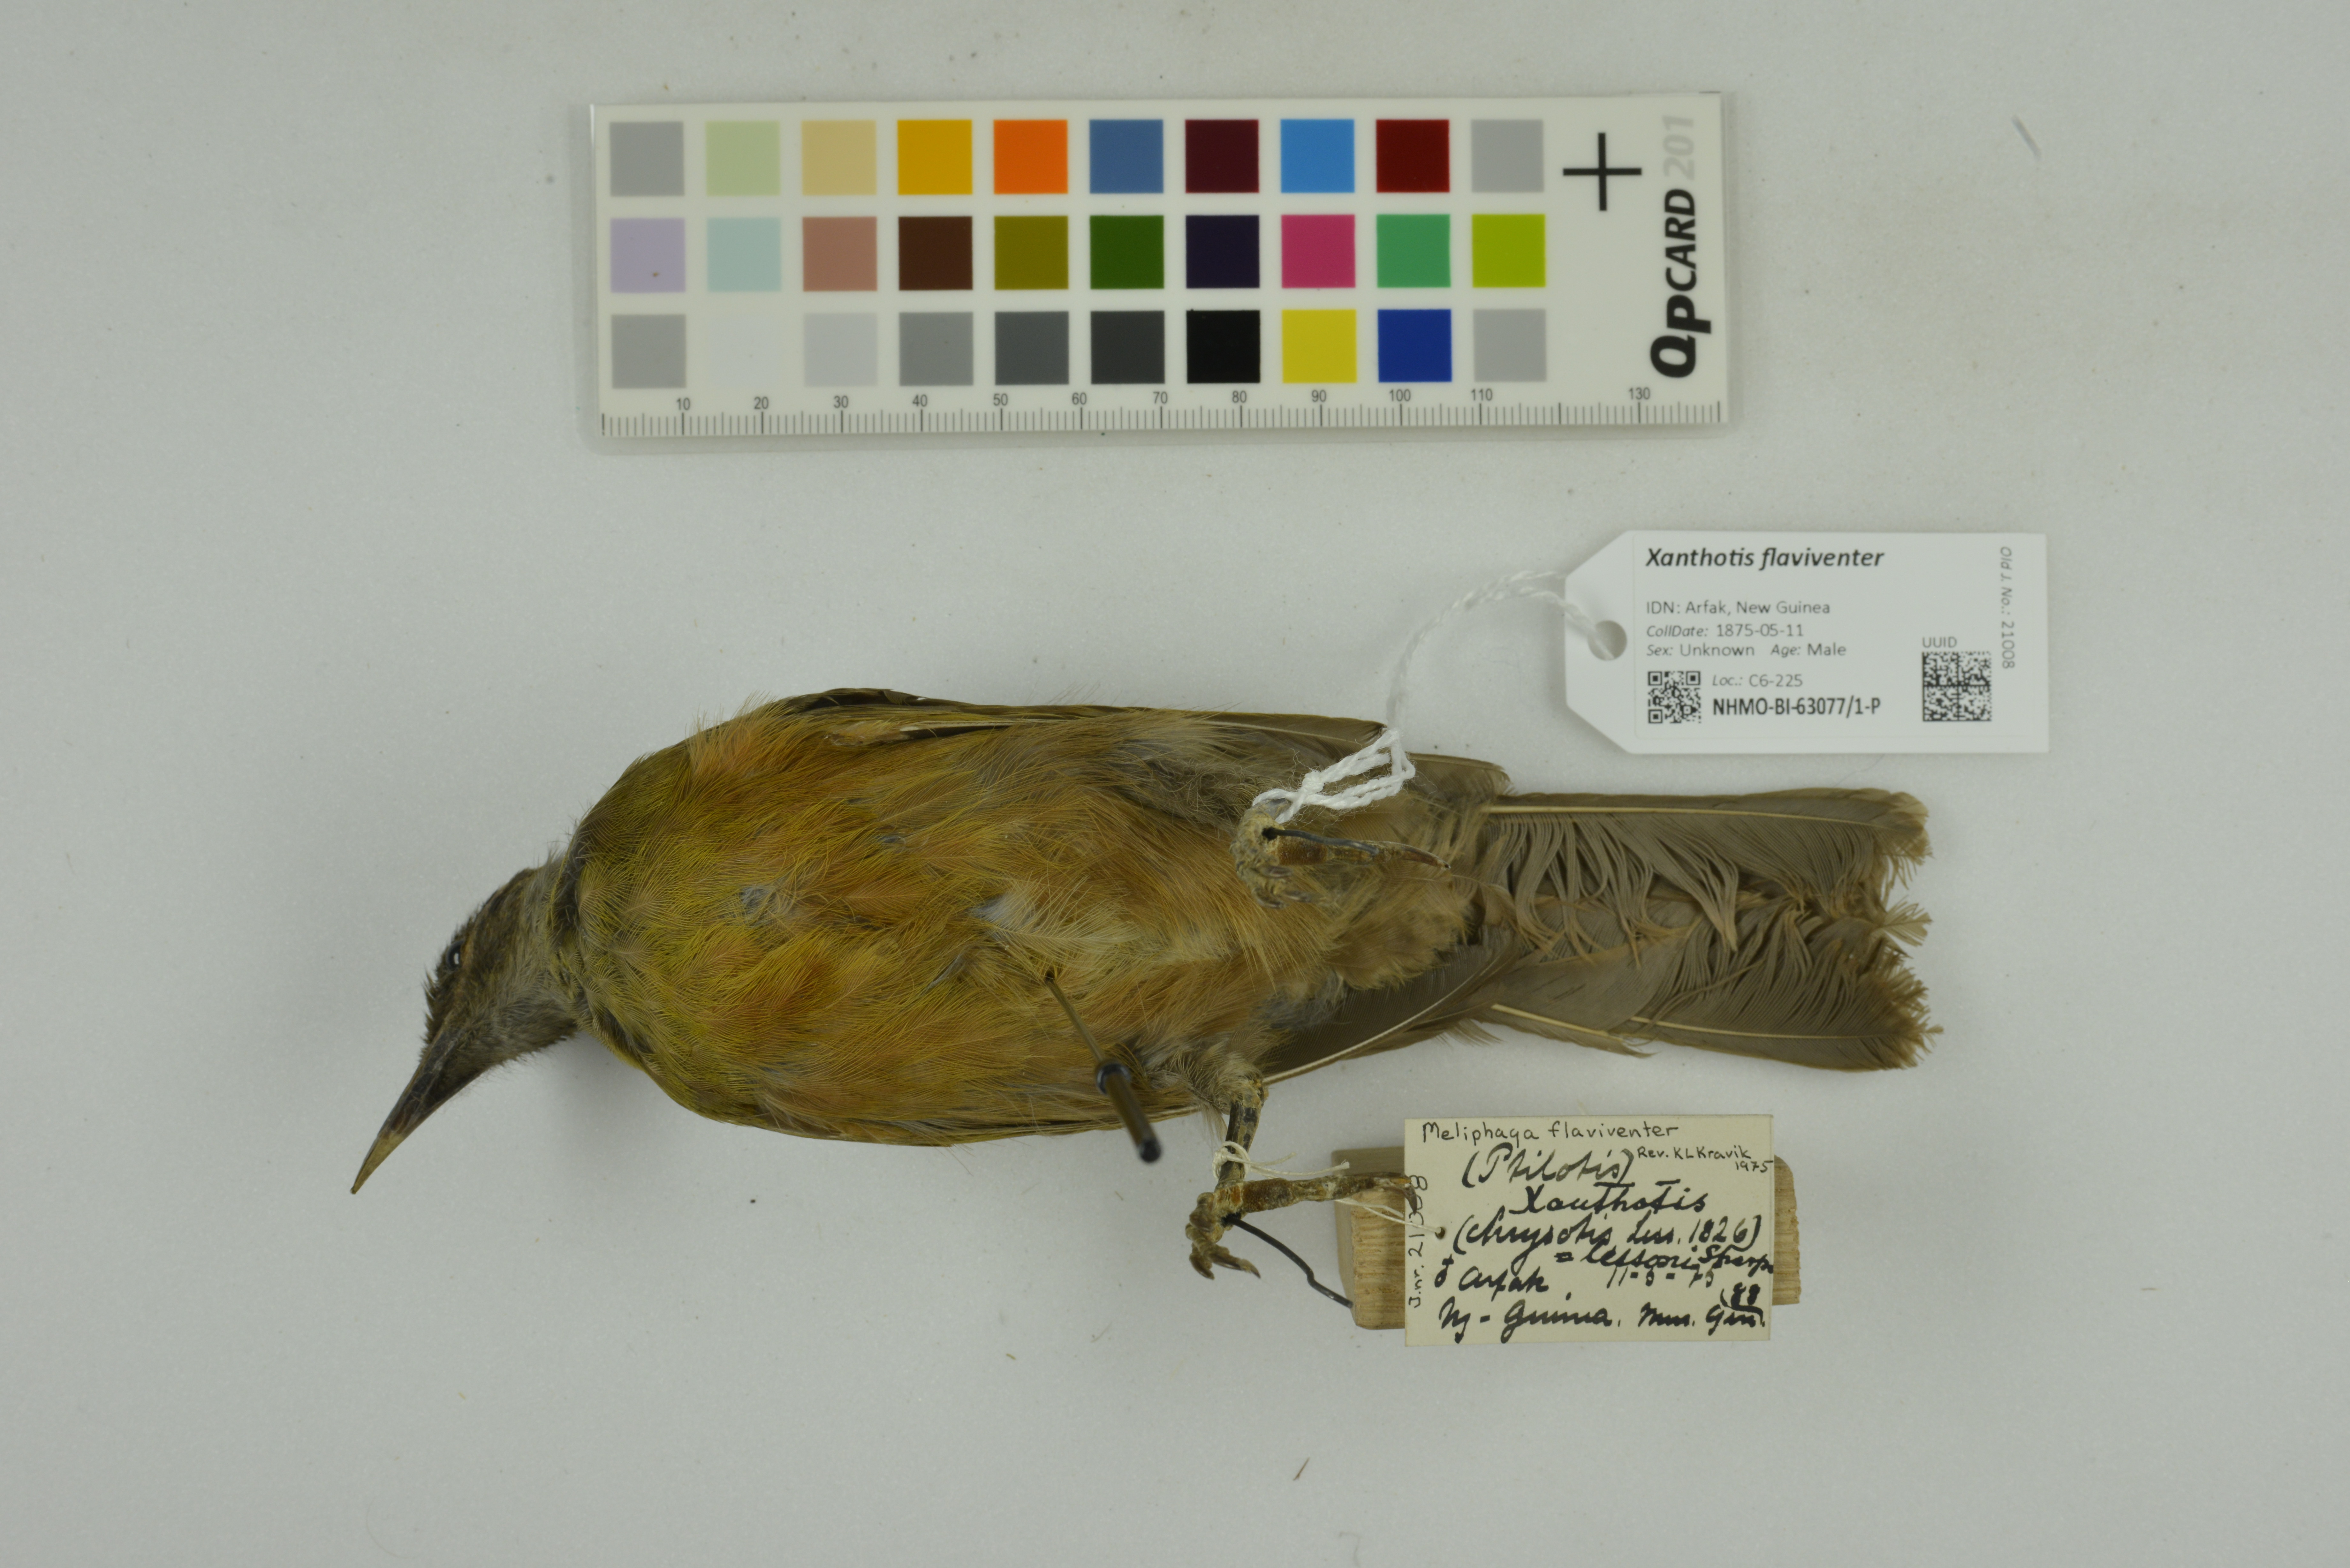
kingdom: Animalia
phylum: Chordata
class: Aves
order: Passeriformes
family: Meliphagidae
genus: Xanthotis
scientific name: Xanthotis flaviventer
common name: Tawny-breasted honeyeater
